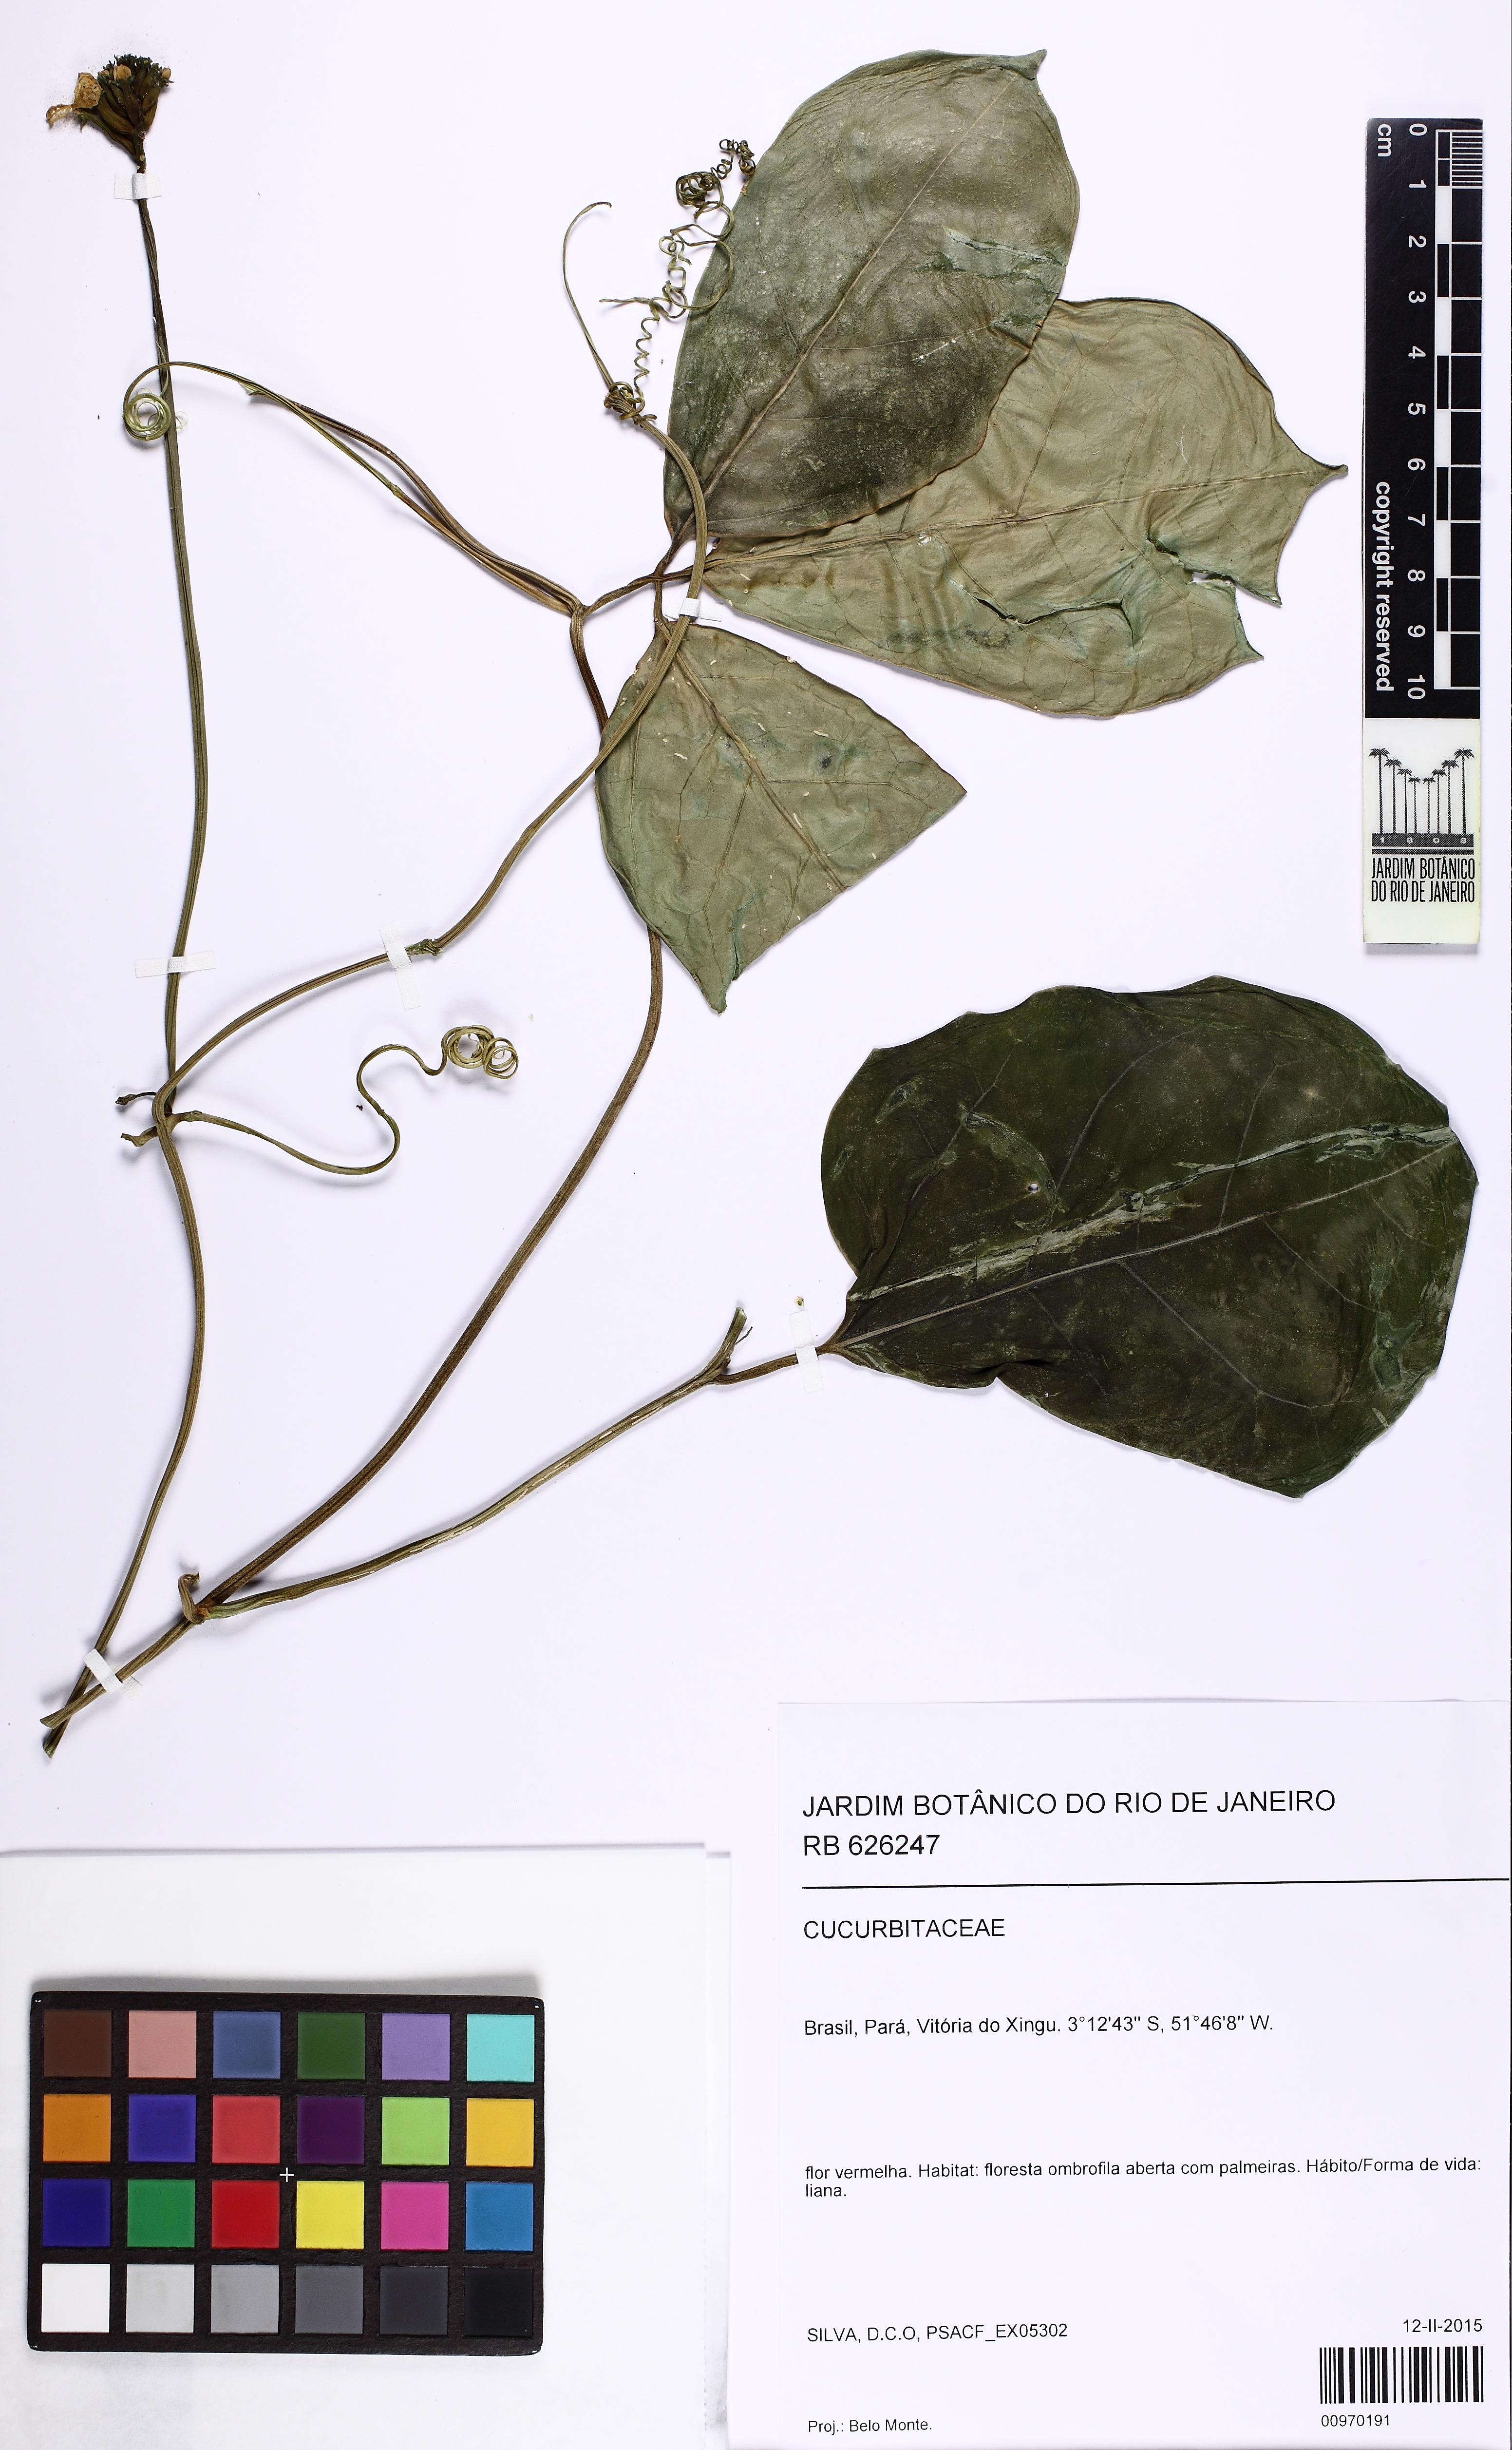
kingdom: Plantae
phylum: Tracheophyta
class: Magnoliopsida
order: Cucurbitales
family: Cucurbitaceae
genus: Psiguria
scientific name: Psiguria
